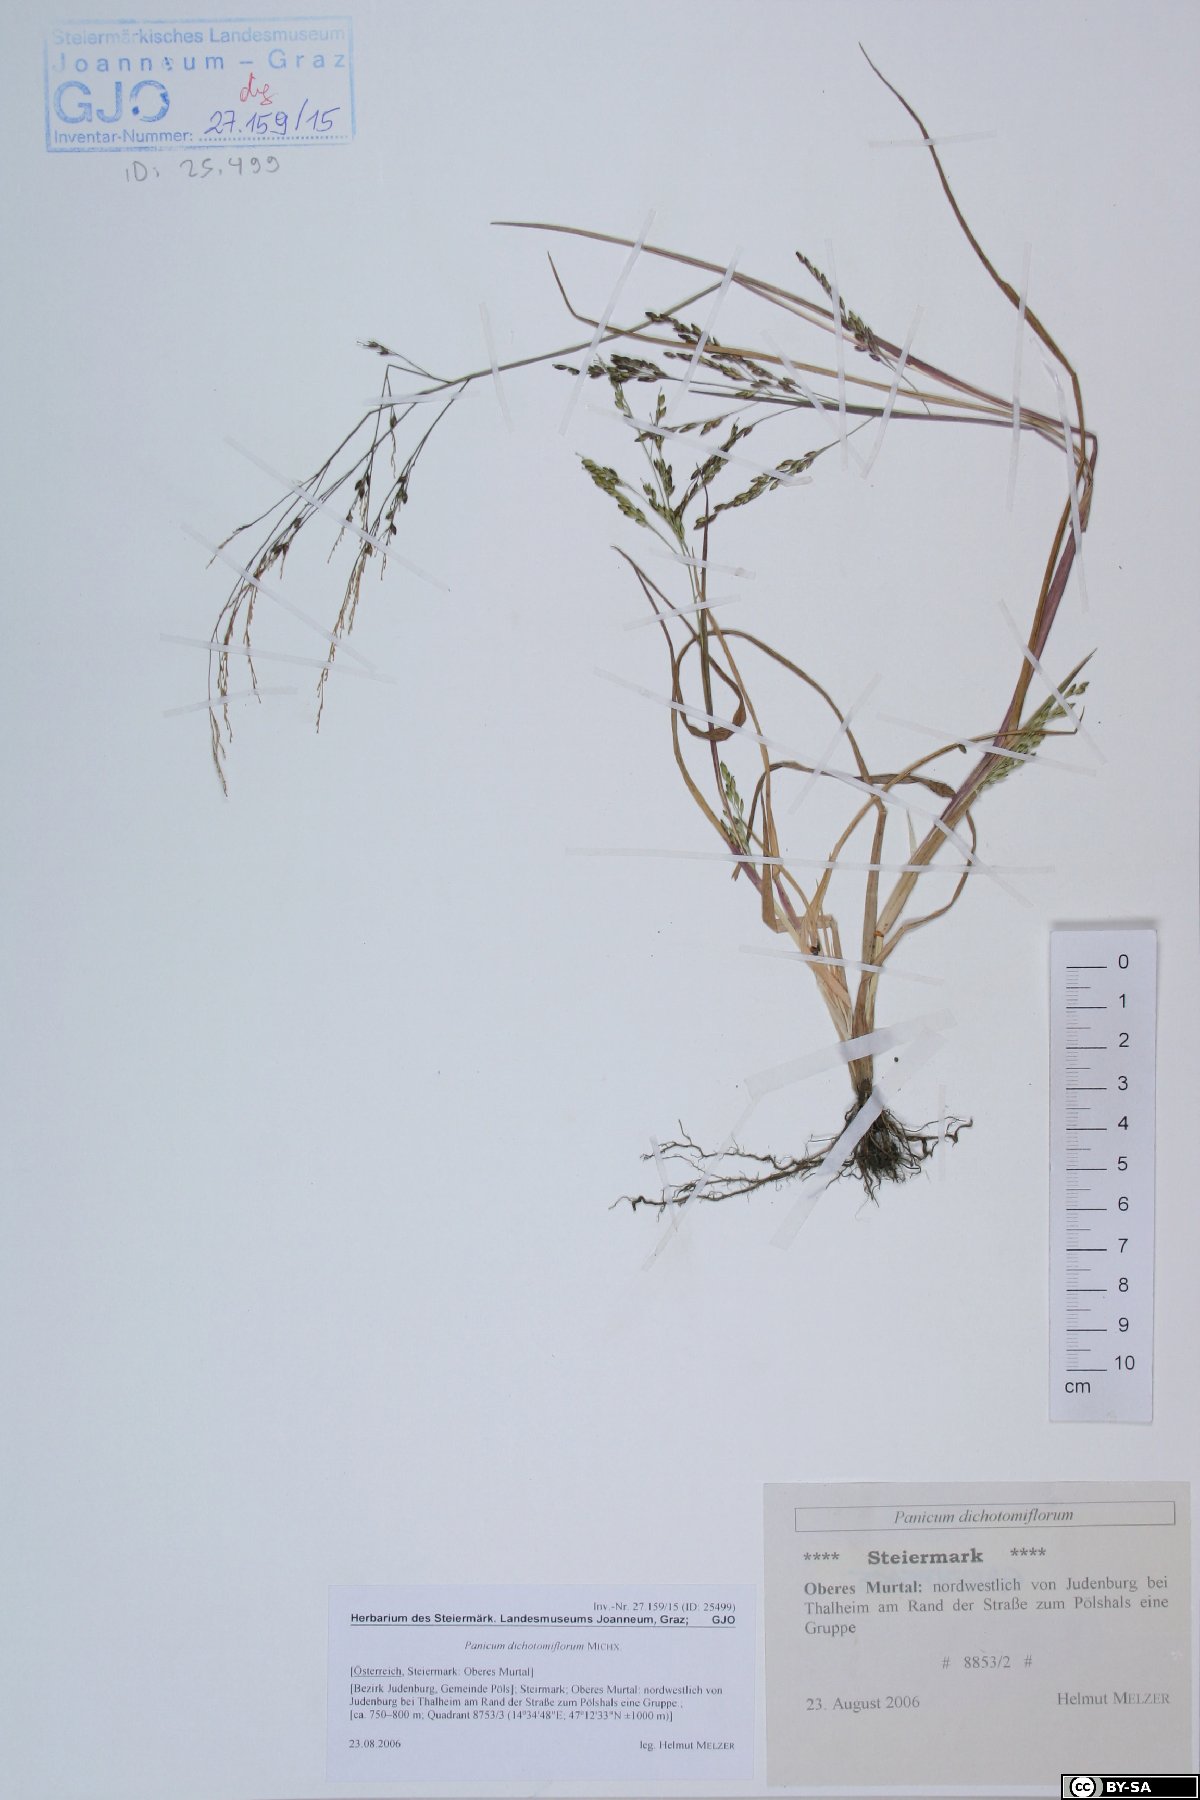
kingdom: Plantae
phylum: Tracheophyta
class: Liliopsida
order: Poales
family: Poaceae
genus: Panicum
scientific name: Panicum dichotomiflorum
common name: Autumn millet
